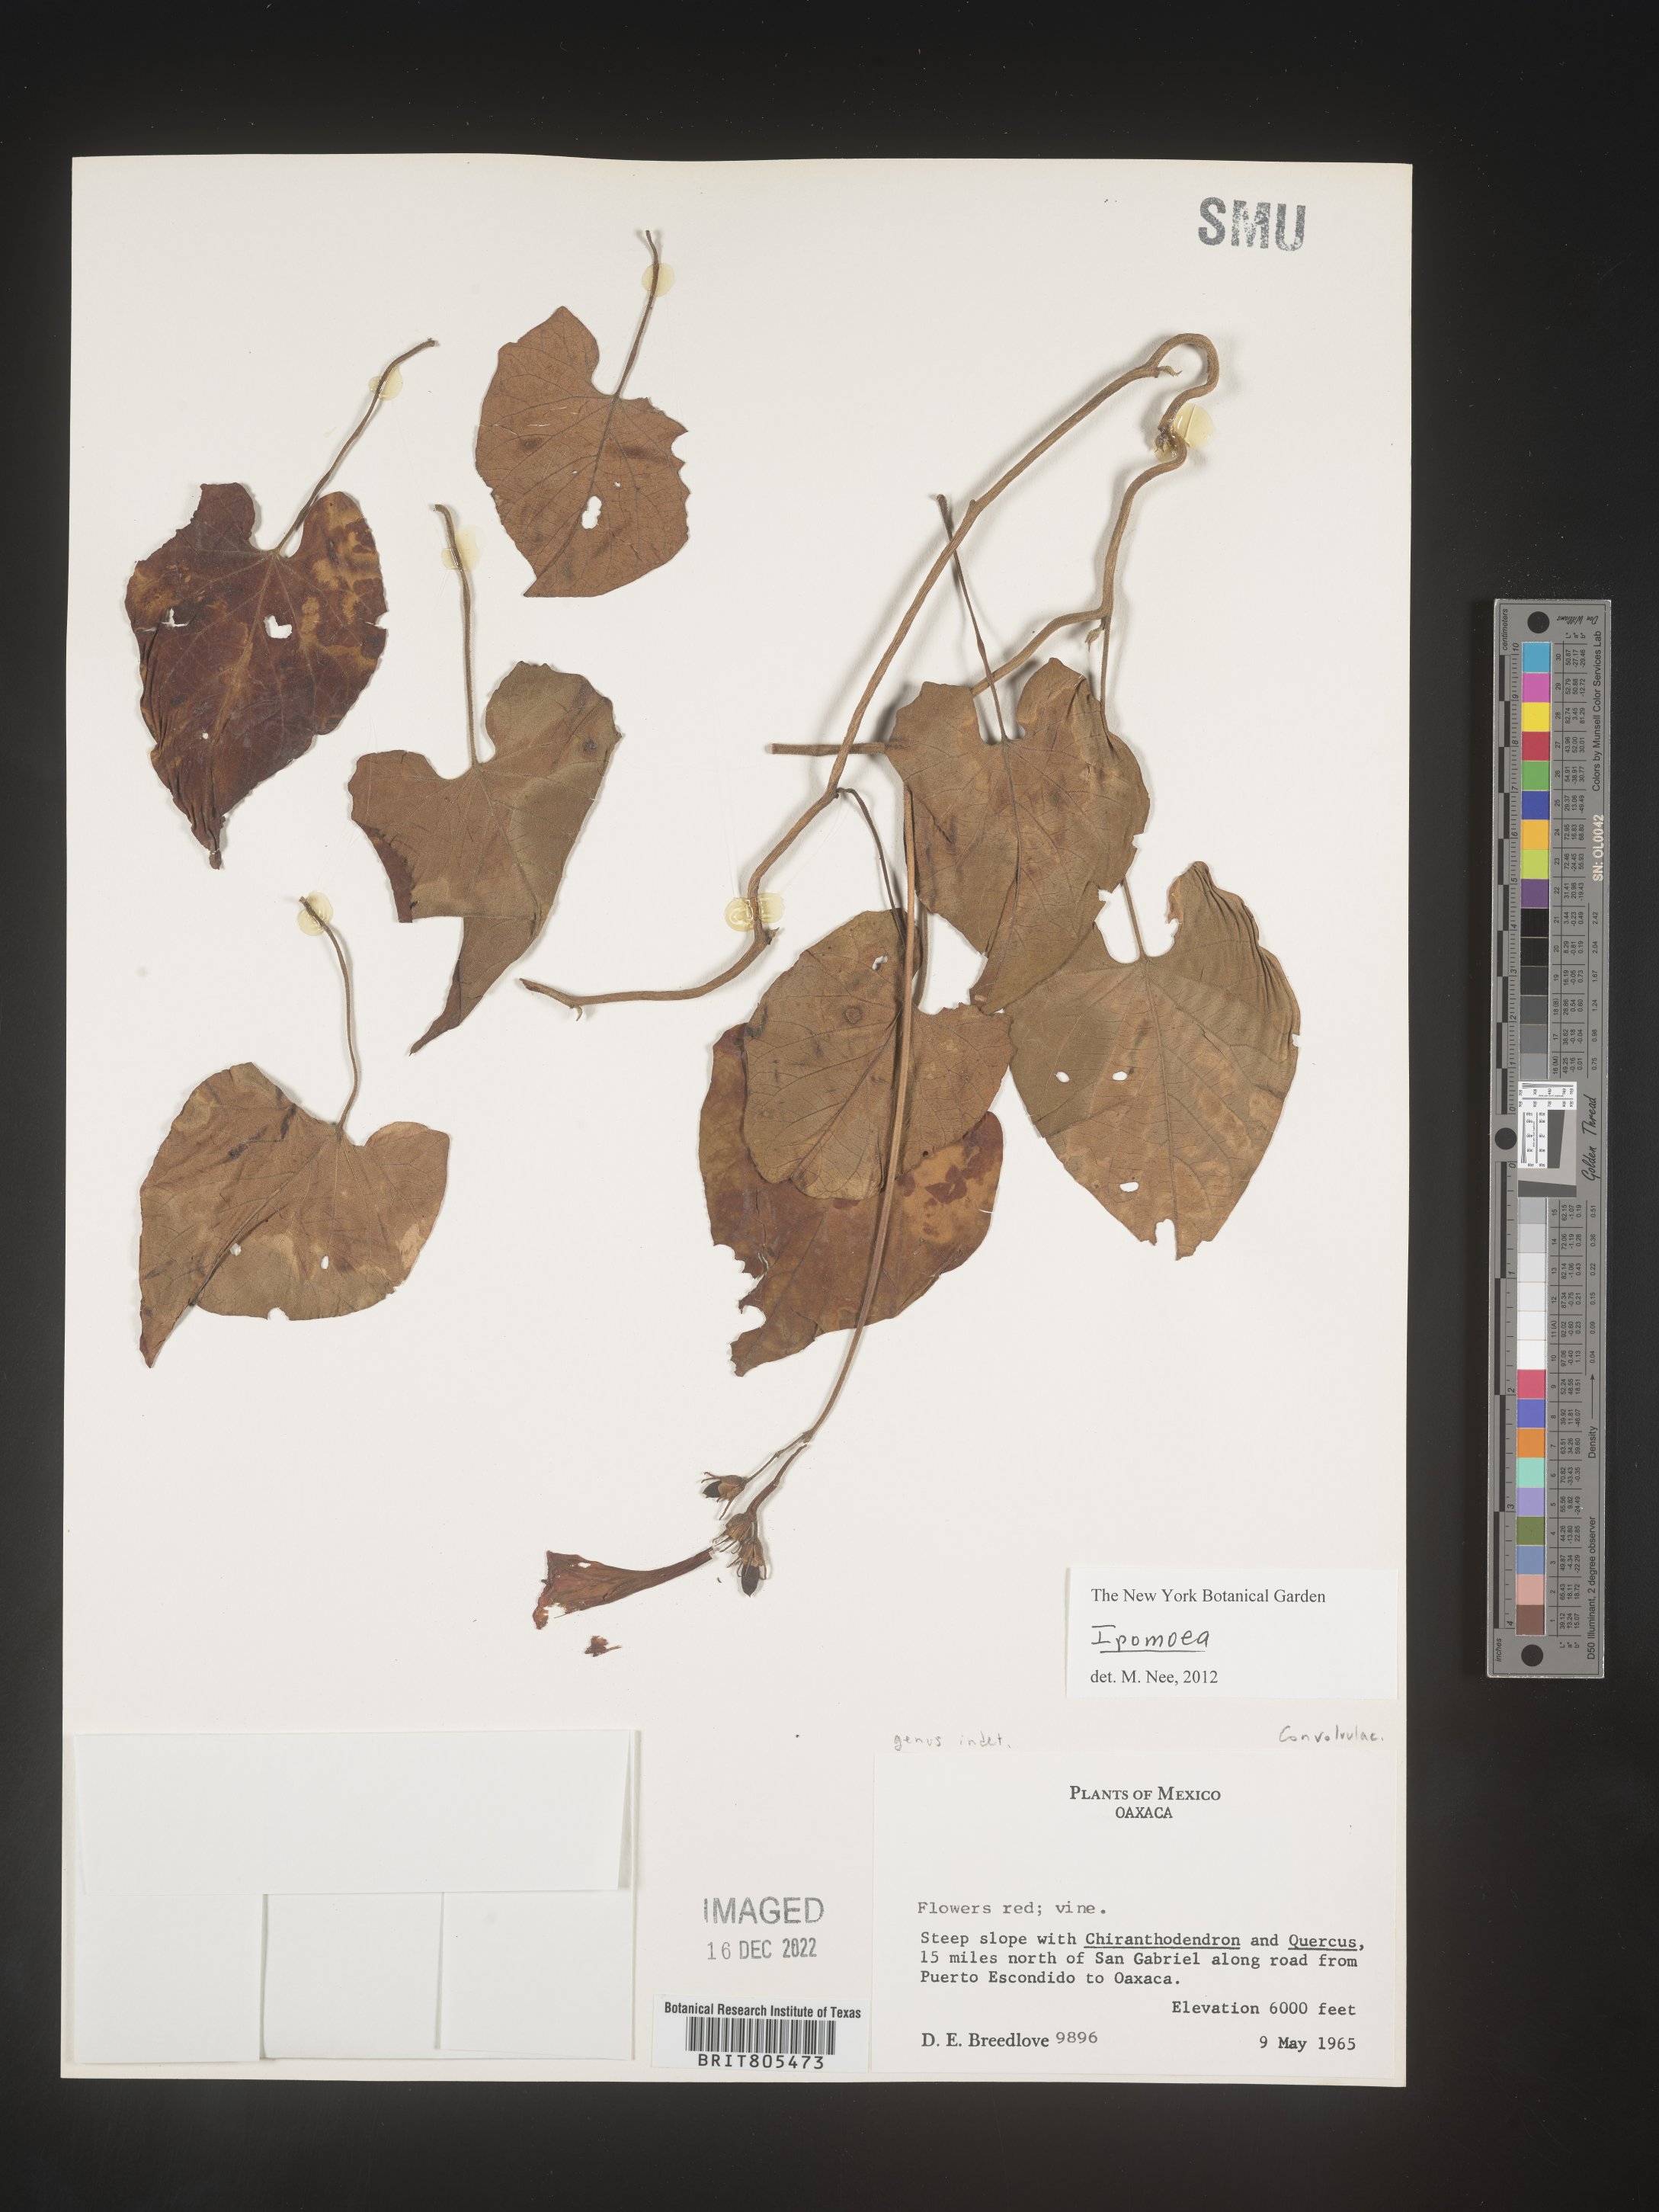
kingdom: Plantae
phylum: Tracheophyta
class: Magnoliopsida
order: Solanales
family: Convolvulaceae
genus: Ipomoea
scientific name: Ipomoea
